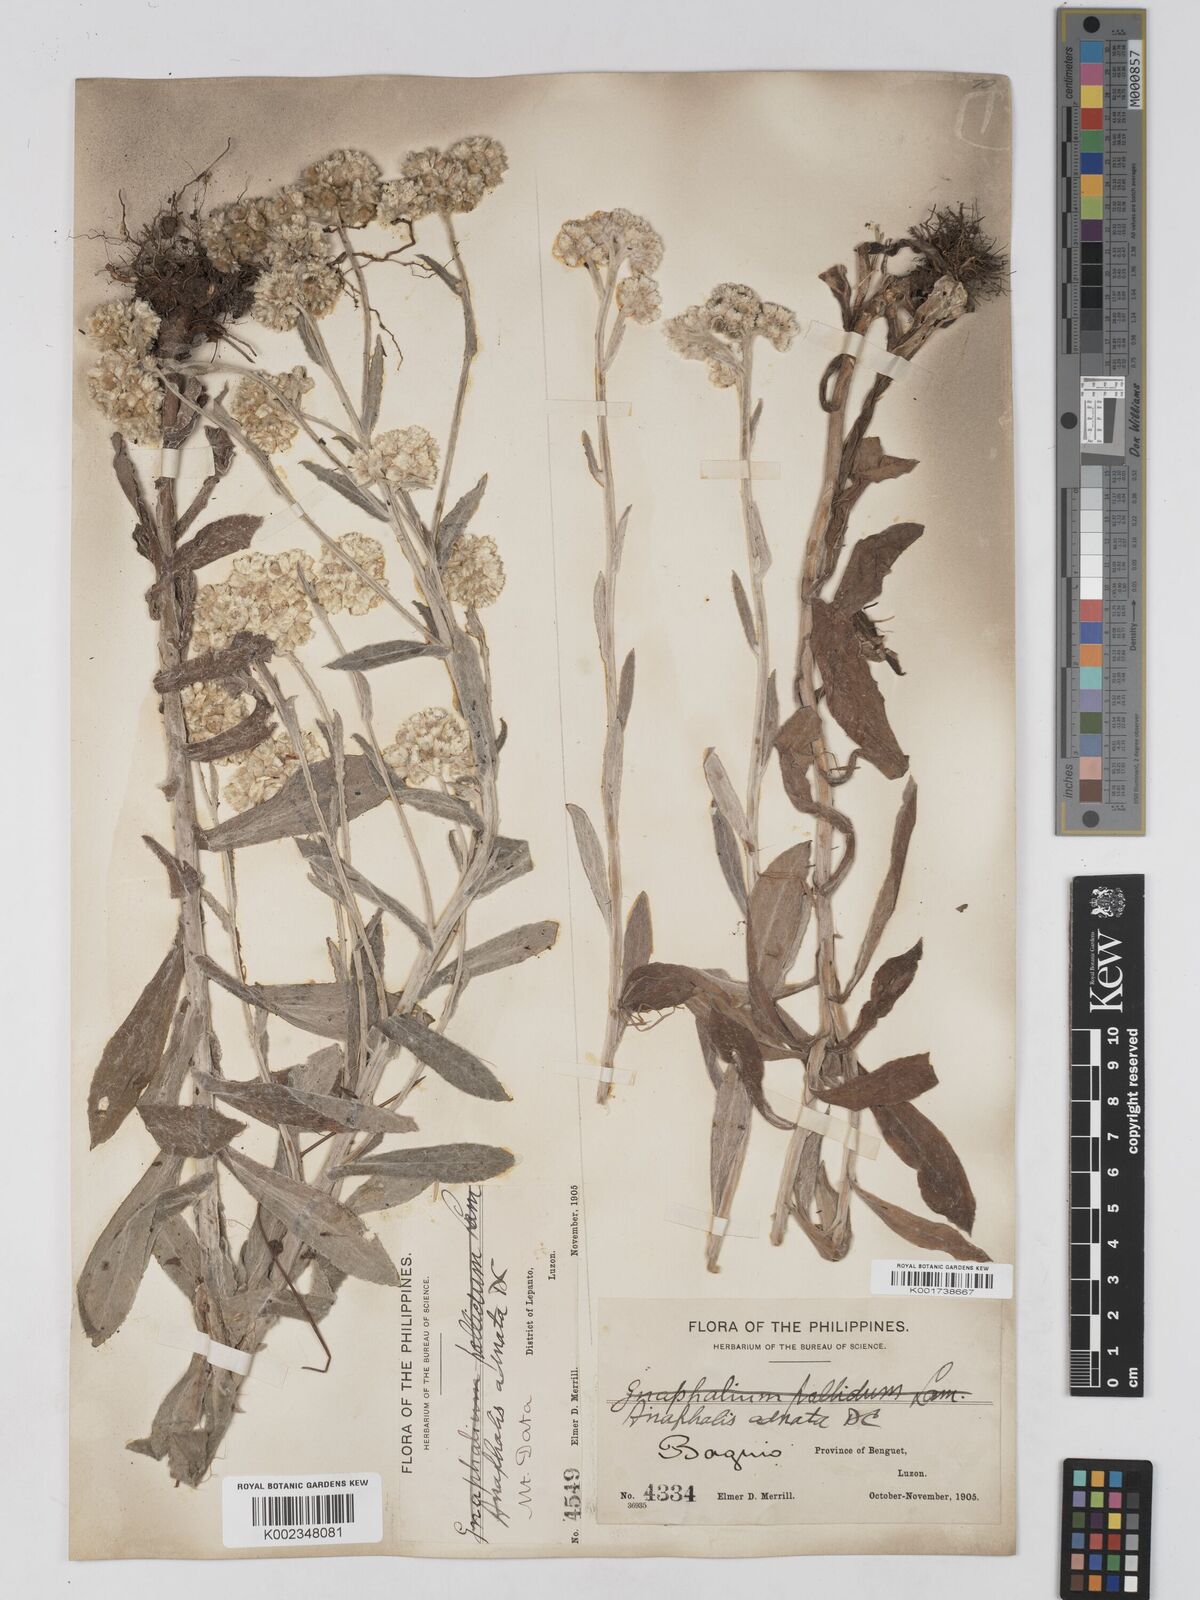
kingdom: Plantae
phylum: Tracheophyta
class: Magnoliopsida
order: Asterales
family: Asteraceae
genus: Pseudognaphalium
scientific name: Pseudognaphalium adnatum
